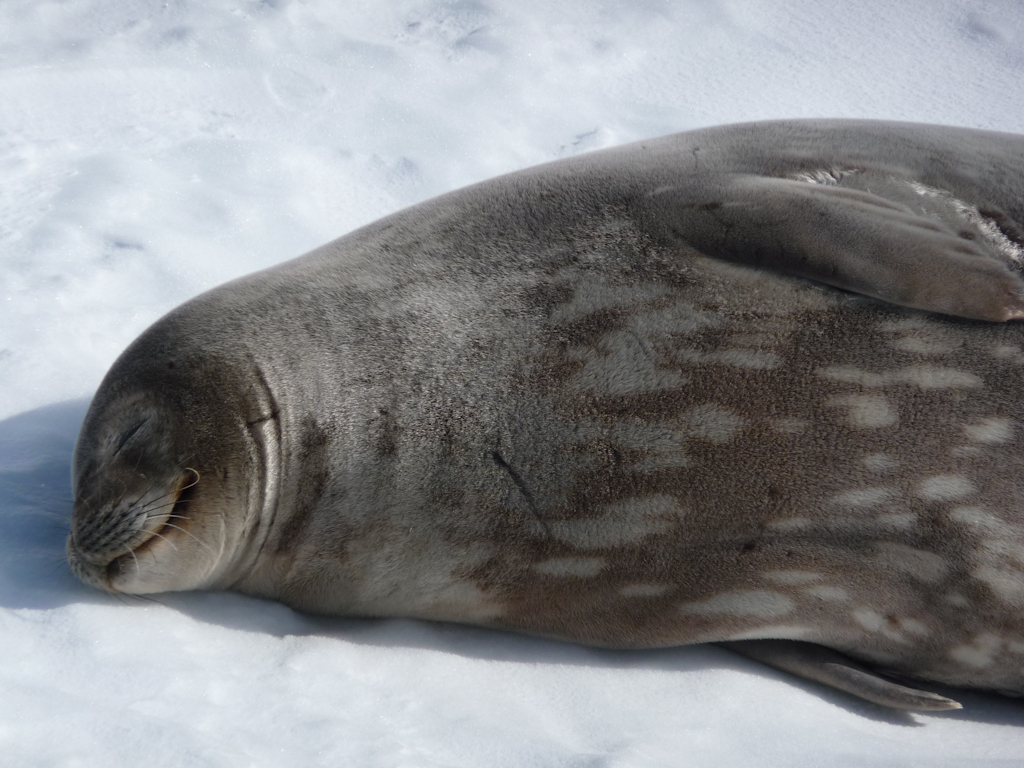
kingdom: Animalia
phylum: Chordata
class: Mammalia
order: Carnivora
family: Phocidae
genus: Leptonychotes
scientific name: Leptonychotes weddellii
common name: Weddell Seal
